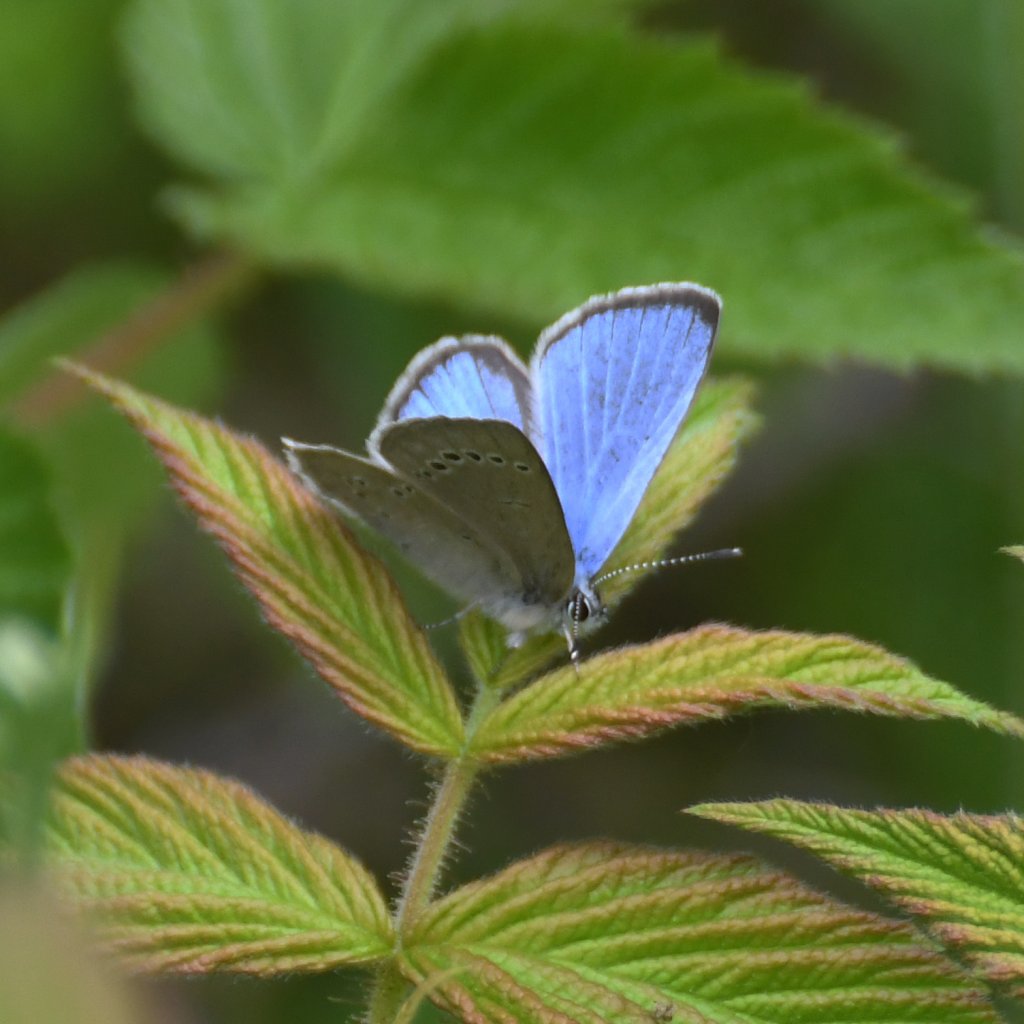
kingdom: Animalia
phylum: Arthropoda
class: Insecta
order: Lepidoptera
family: Lycaenidae
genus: Glaucopsyche
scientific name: Glaucopsyche lygdamus
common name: Silvery Blue
